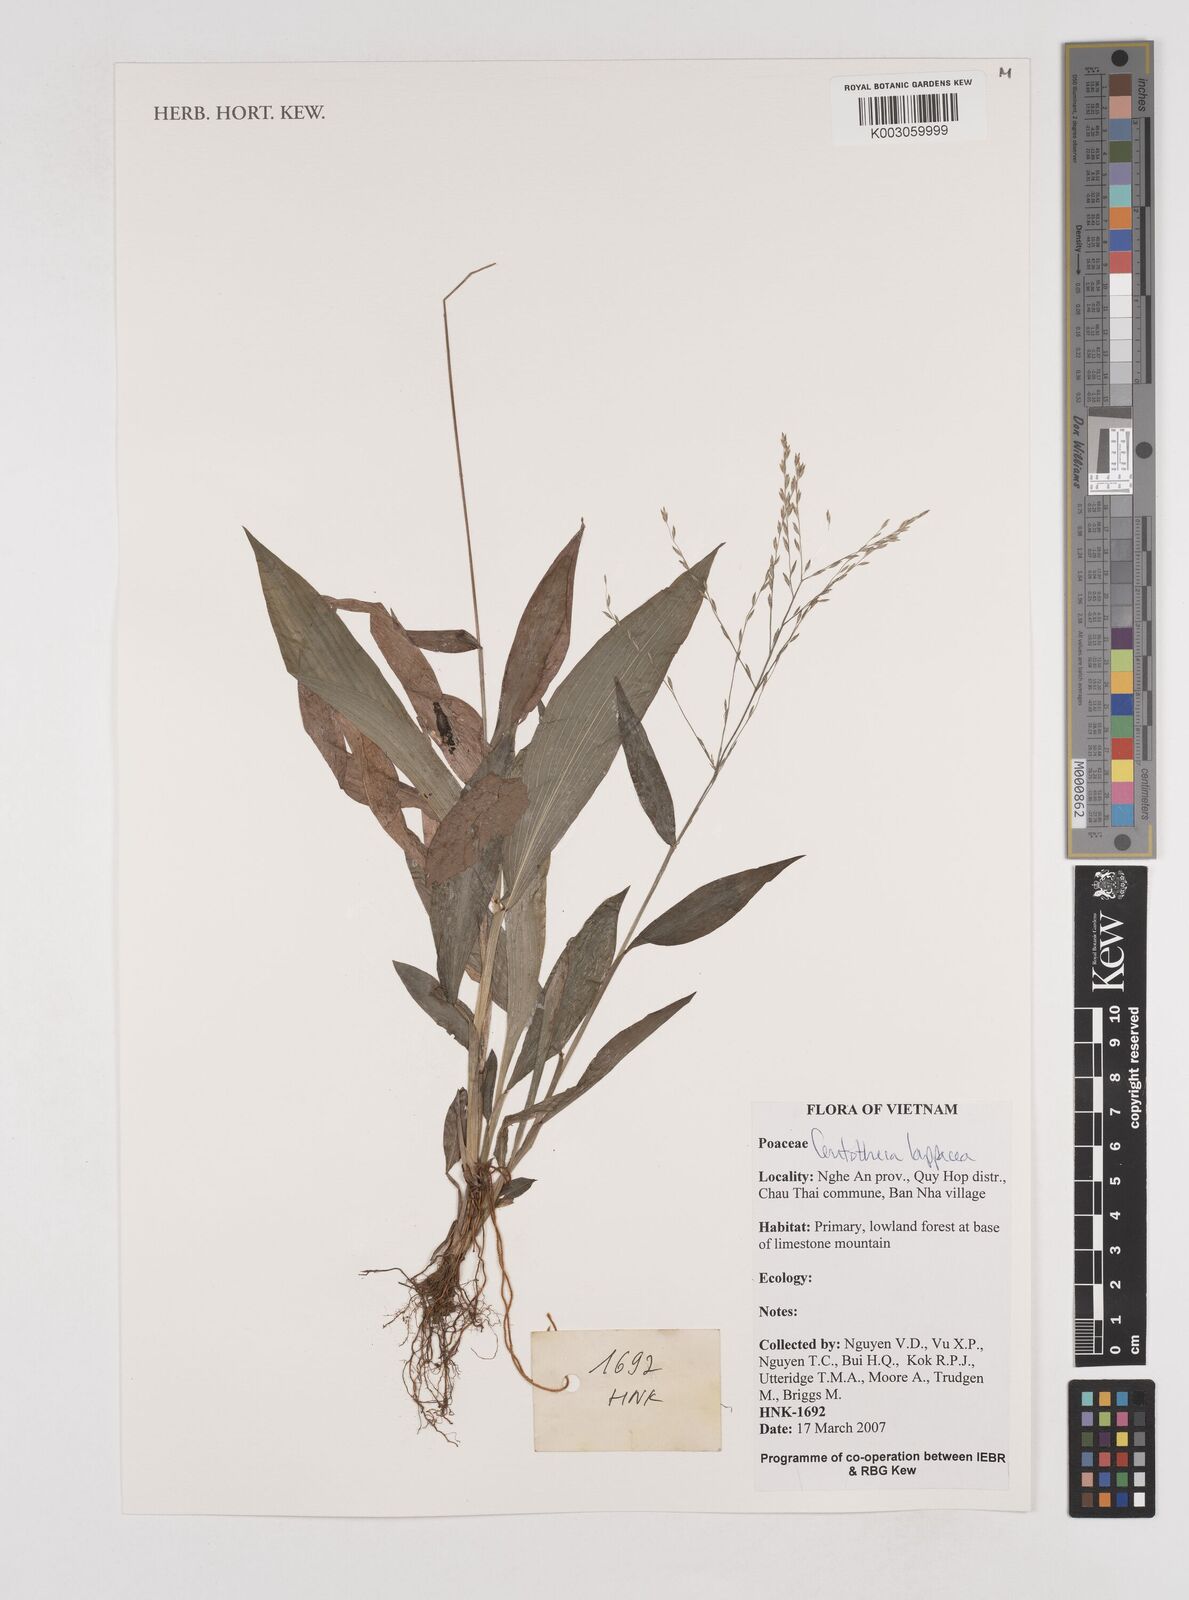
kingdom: Plantae
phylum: Tracheophyta
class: Liliopsida
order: Poales
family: Poaceae
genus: Centotheca
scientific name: Centotheca lappacea
